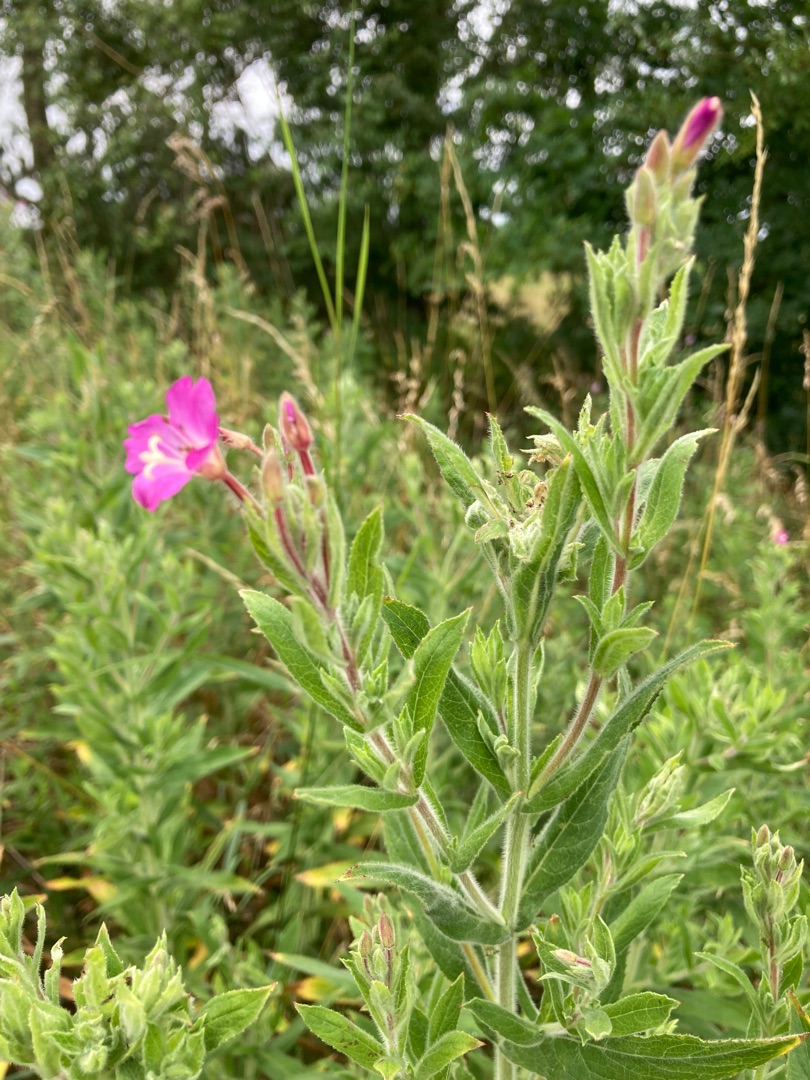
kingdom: Plantae
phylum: Tracheophyta
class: Magnoliopsida
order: Myrtales
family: Onagraceae
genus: Epilobium
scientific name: Epilobium hirsutum
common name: Lådden dueurt
